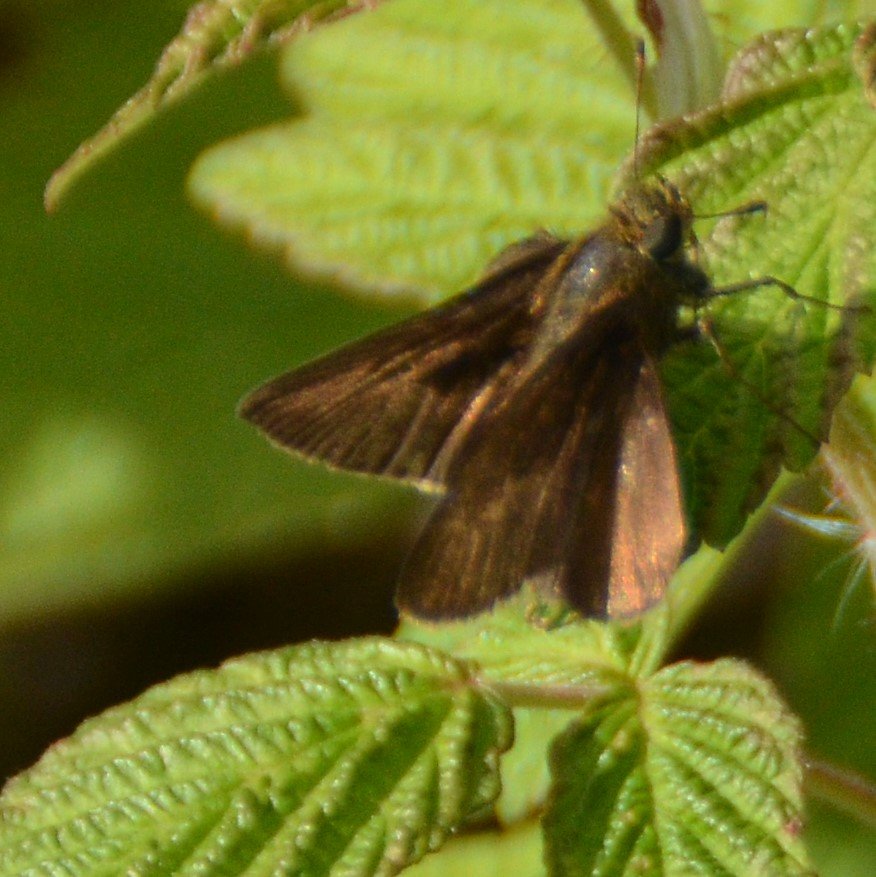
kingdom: Animalia
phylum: Arthropoda
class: Insecta
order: Lepidoptera
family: Hesperiidae
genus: Euphyes
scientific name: Euphyes vestris
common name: Dun Skipper
